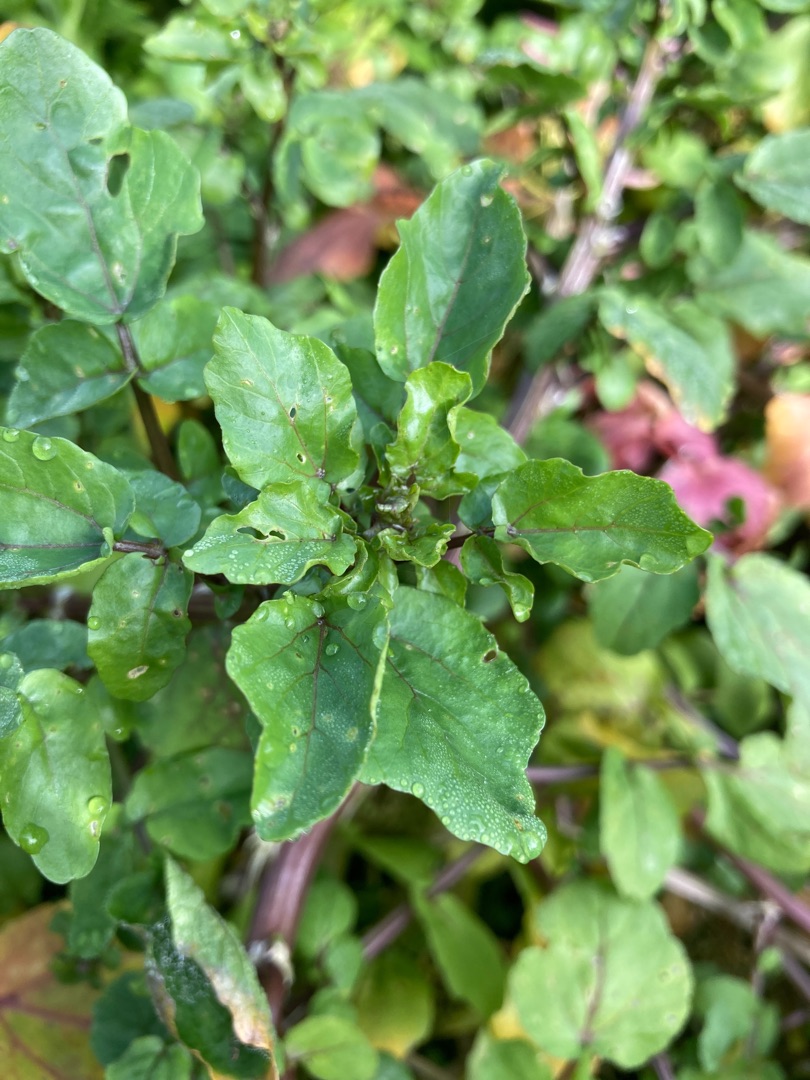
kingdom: Plantae
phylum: Tracheophyta
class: Magnoliopsida
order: Brassicales
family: Brassicaceae
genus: Nasturtium
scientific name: Nasturtium
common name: Brøndkarseslægten
